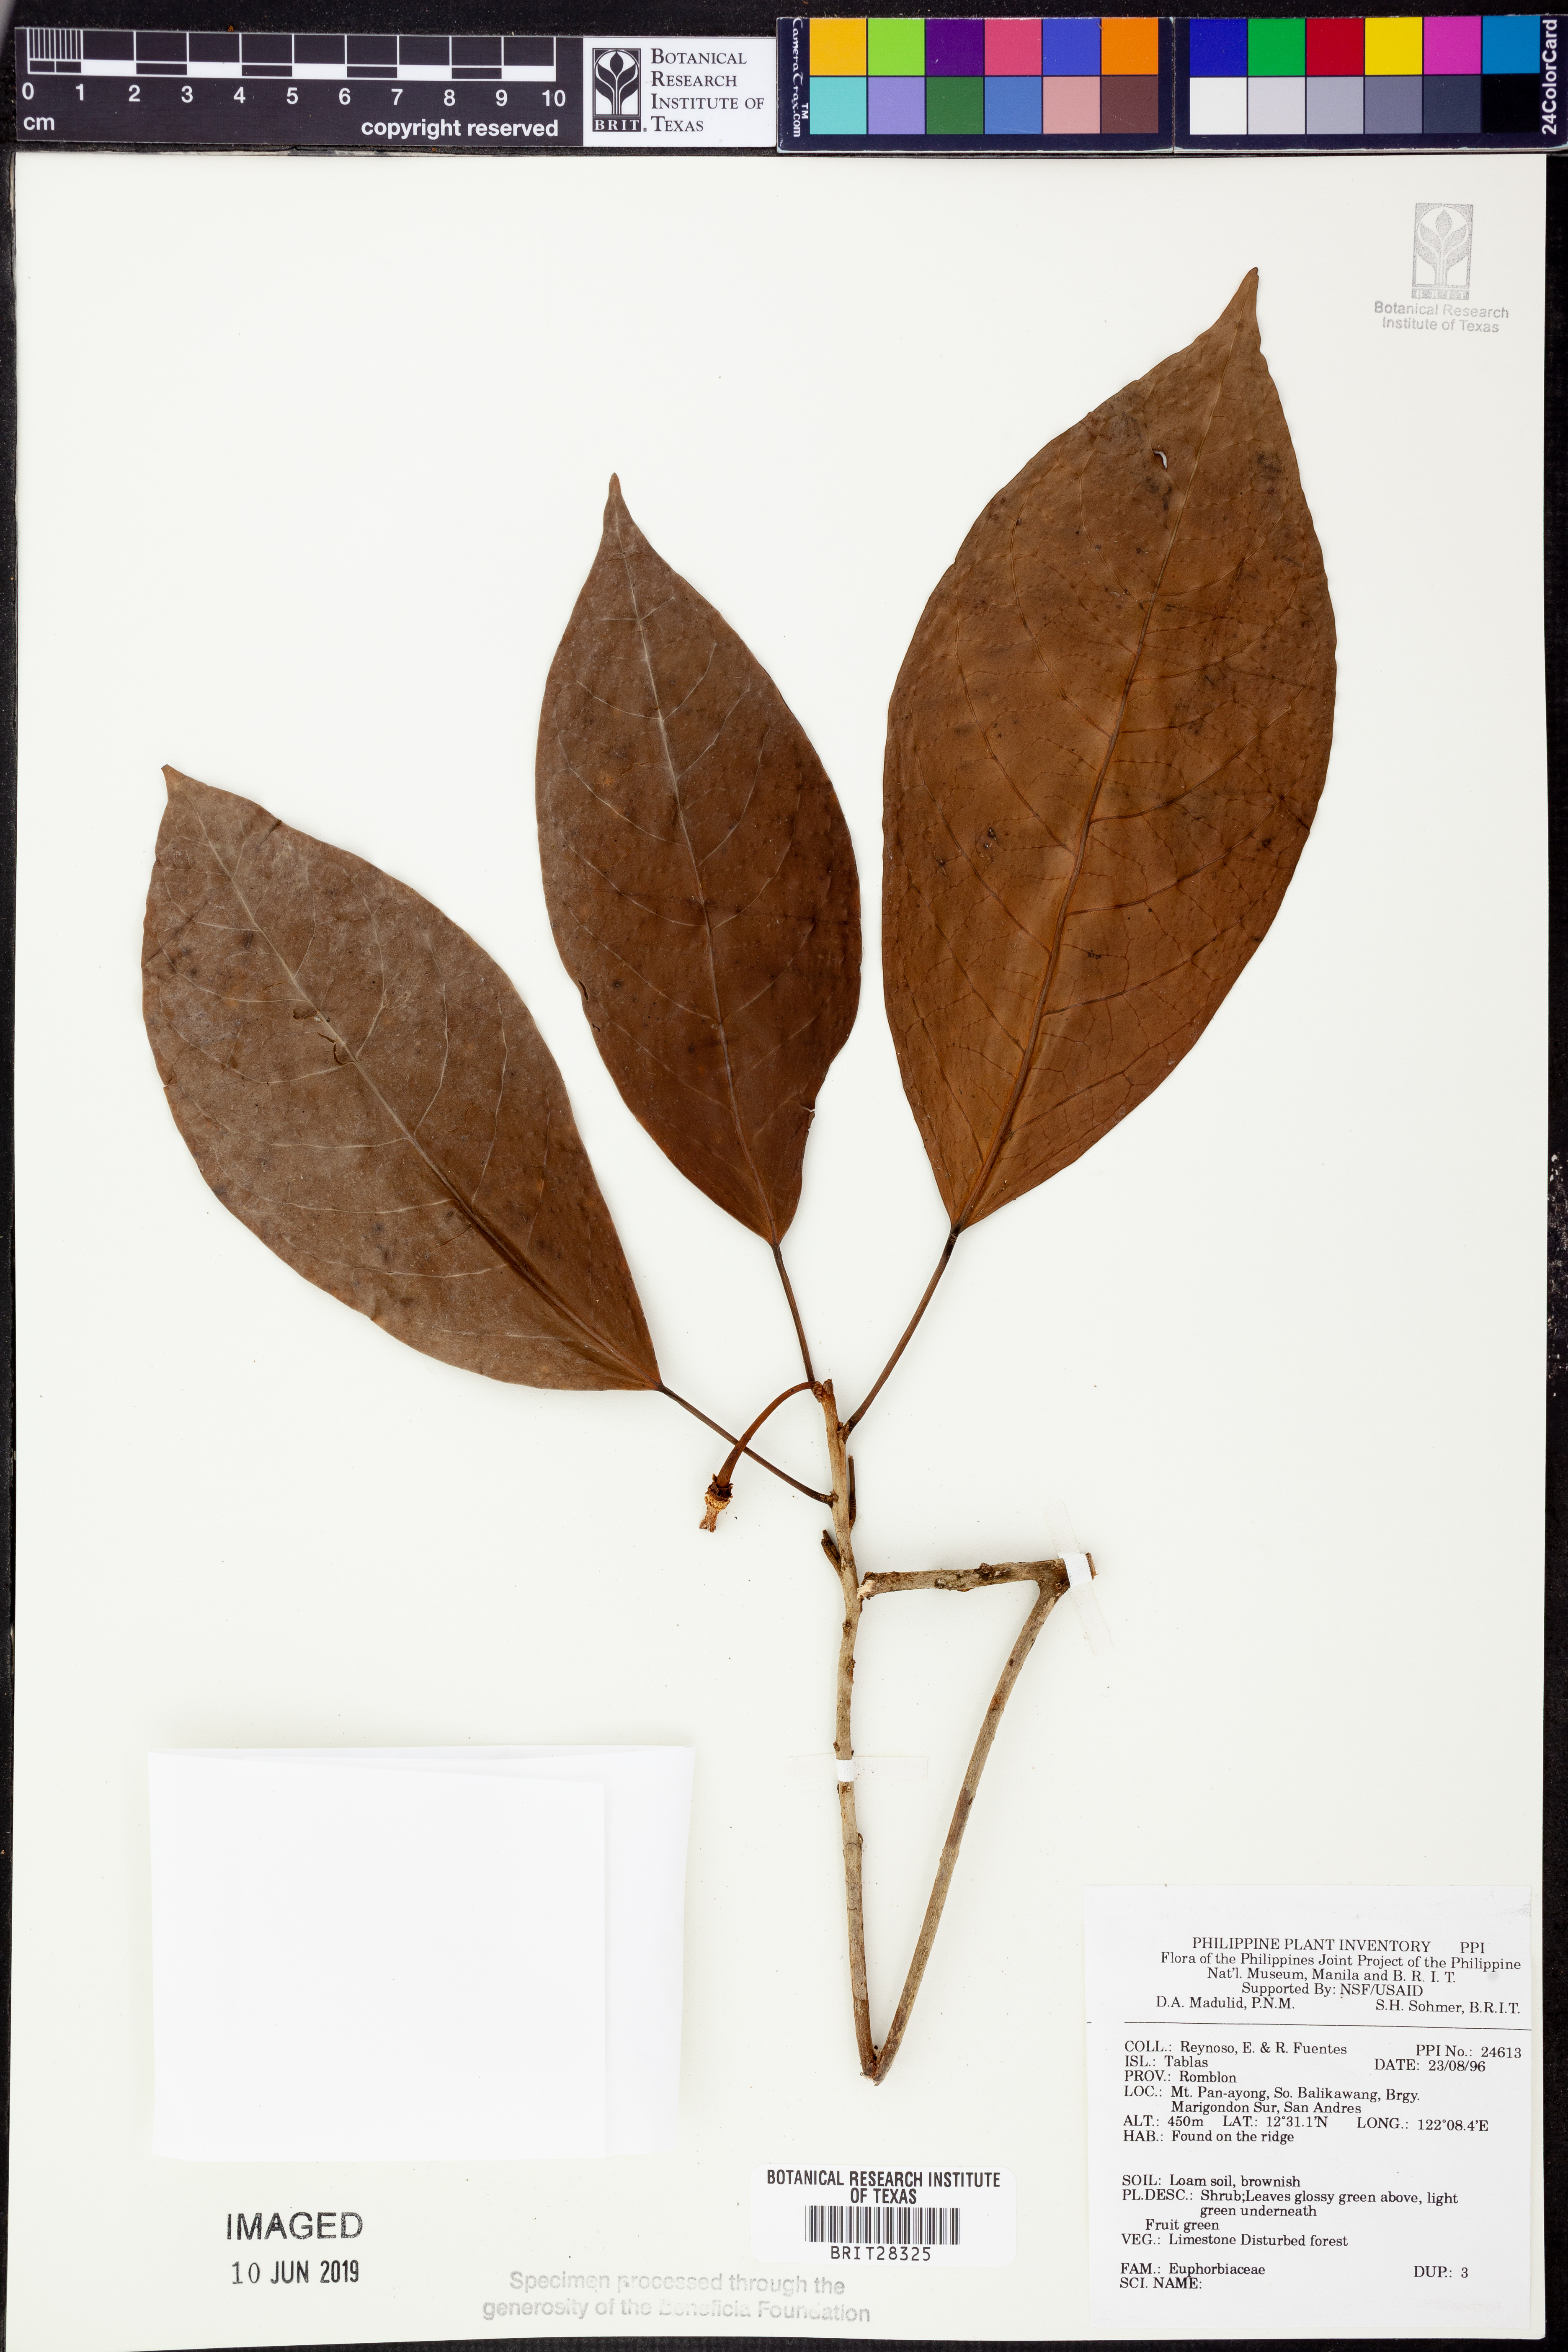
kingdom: Plantae
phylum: Tracheophyta
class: Magnoliopsida
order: Malpighiales
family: Euphorbiaceae
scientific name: Euphorbiaceae
